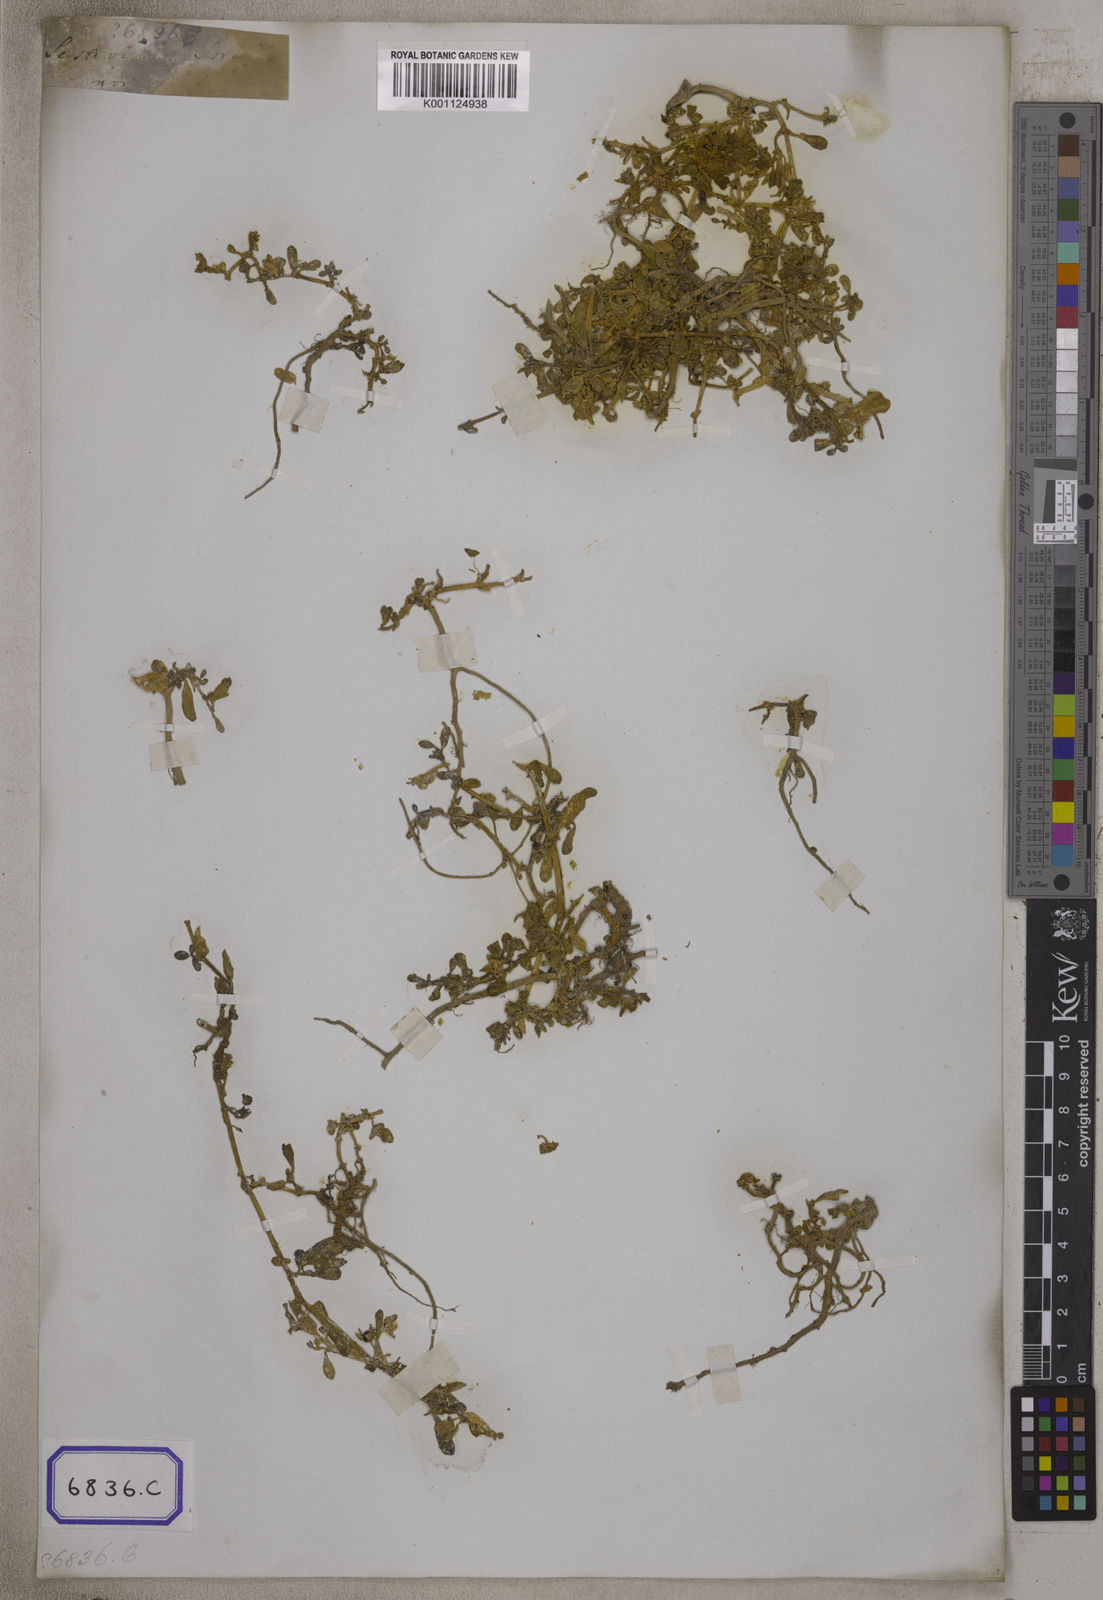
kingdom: Plantae
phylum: Tracheophyta
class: Magnoliopsida
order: Caryophyllales
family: Aizoaceae
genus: Sesuvium
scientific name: Sesuvium portulacastrum
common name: Sea-purslane
